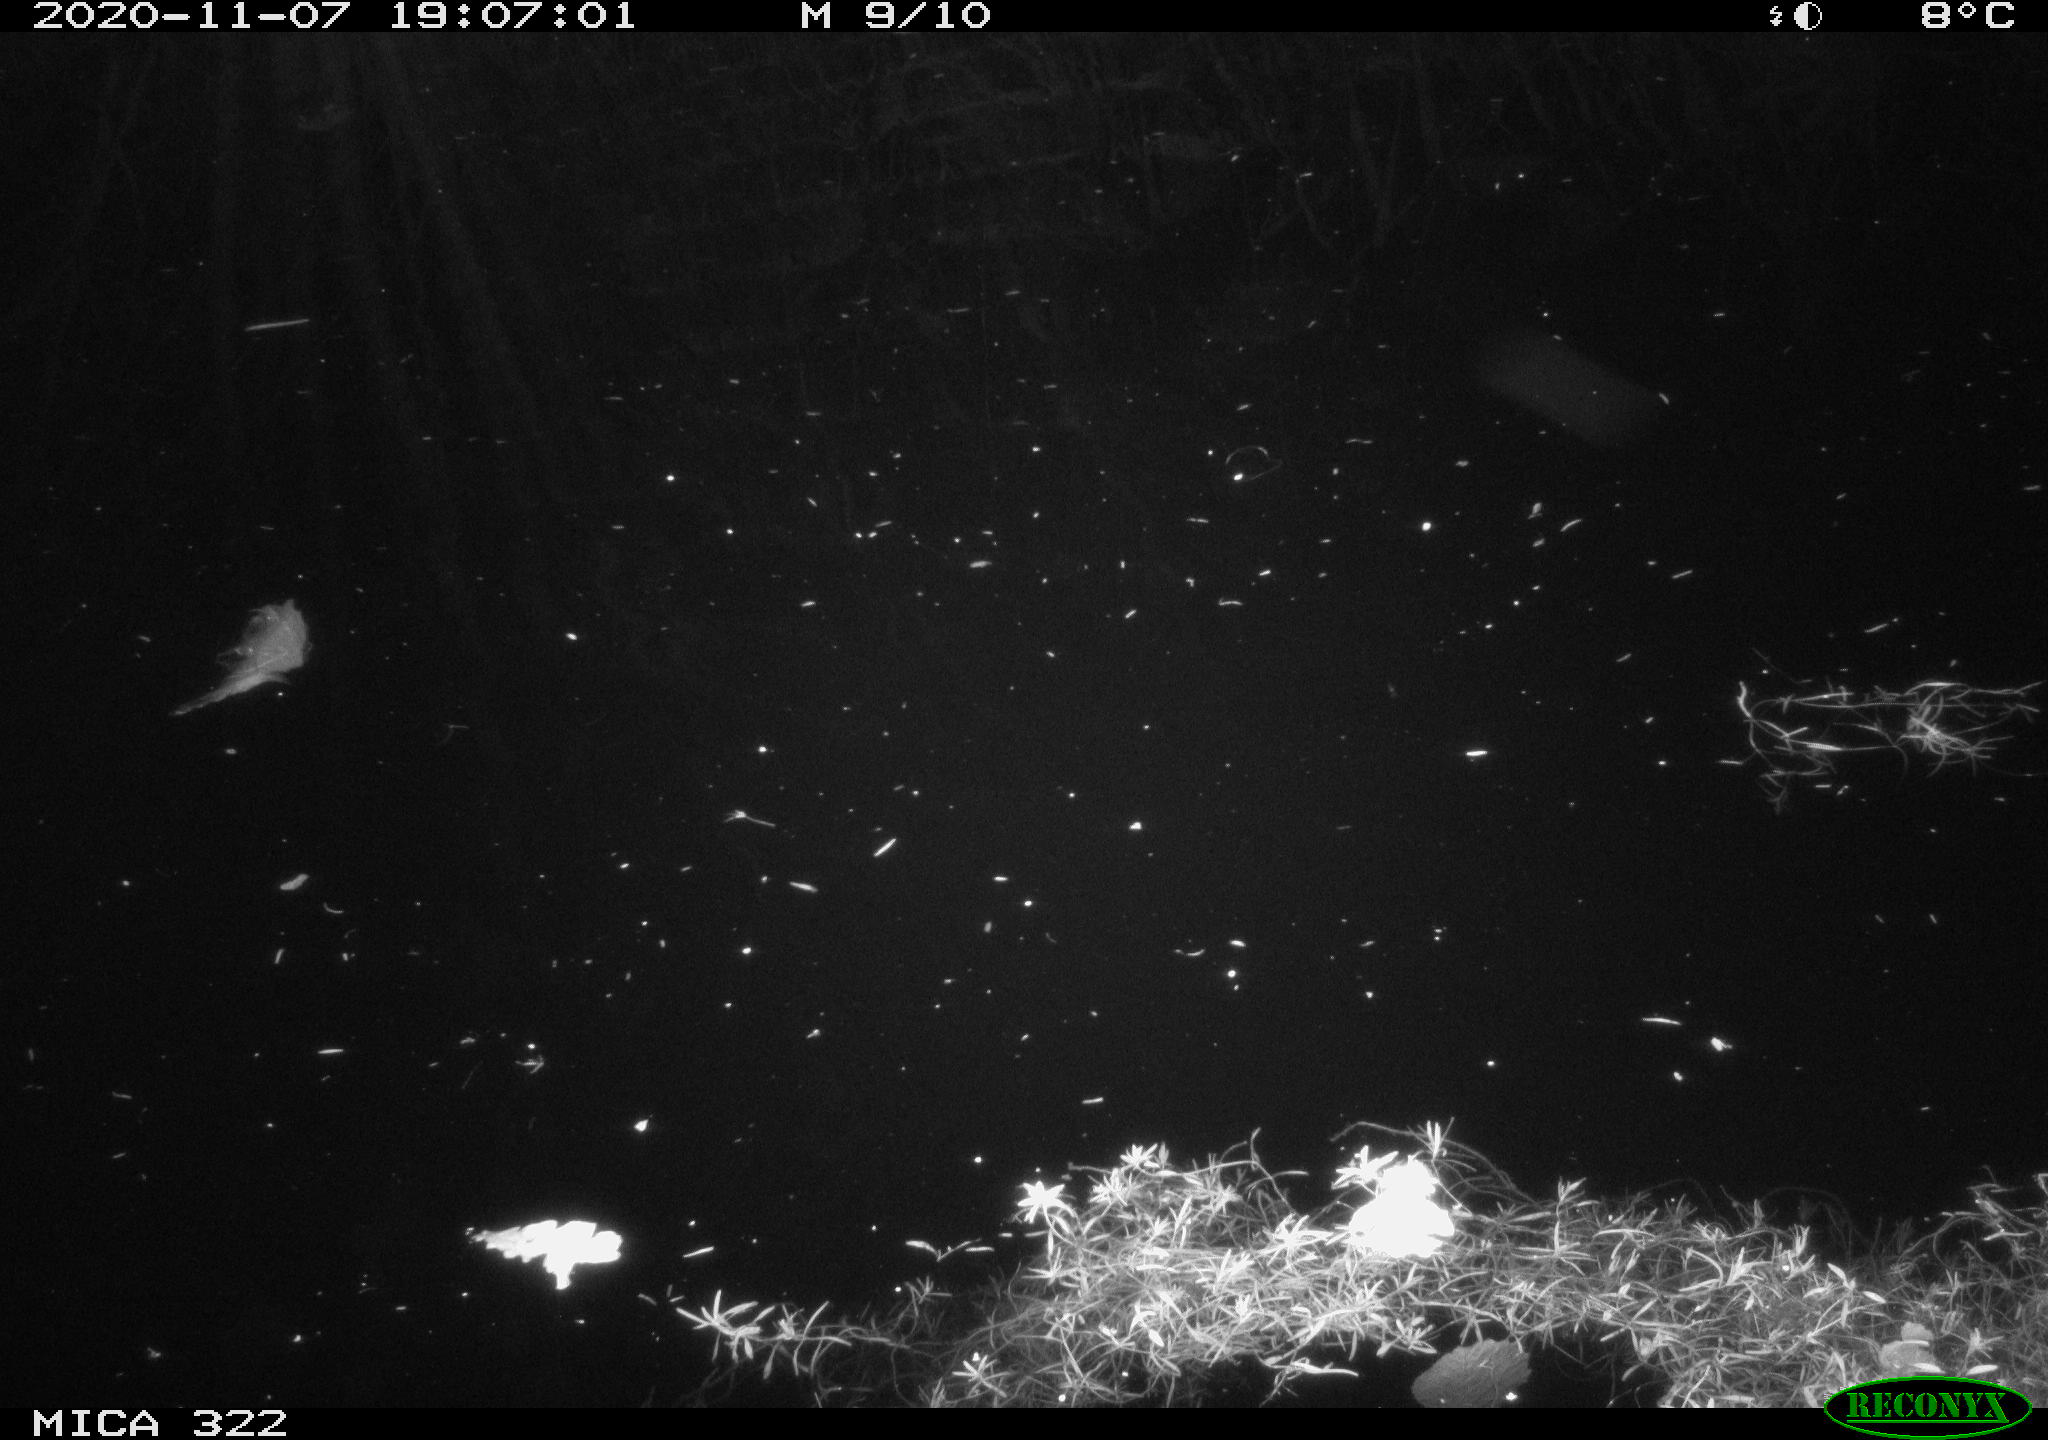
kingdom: Animalia
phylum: Chordata
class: Mammalia
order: Rodentia
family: Muridae
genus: Rattus
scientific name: Rattus norvegicus
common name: Brown rat
